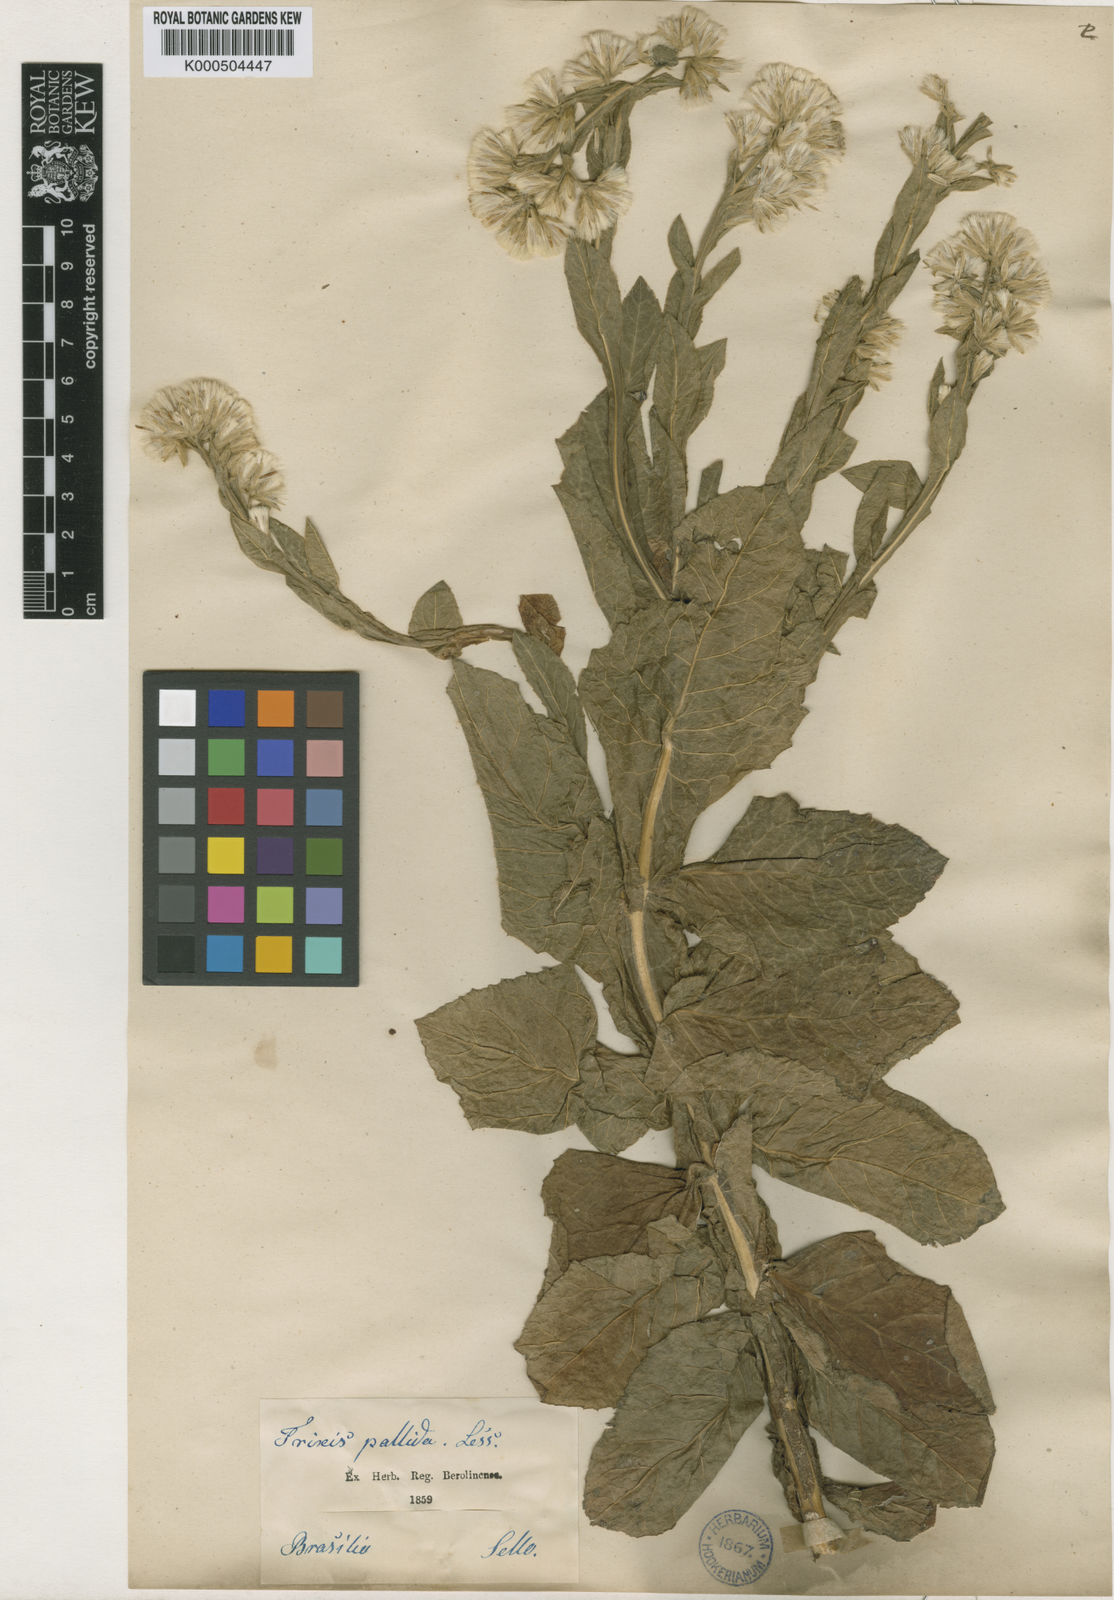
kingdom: Plantae
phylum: Tracheophyta
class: Magnoliopsida
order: Asterales
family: Asteraceae
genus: Trixis
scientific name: Trixis pallida
